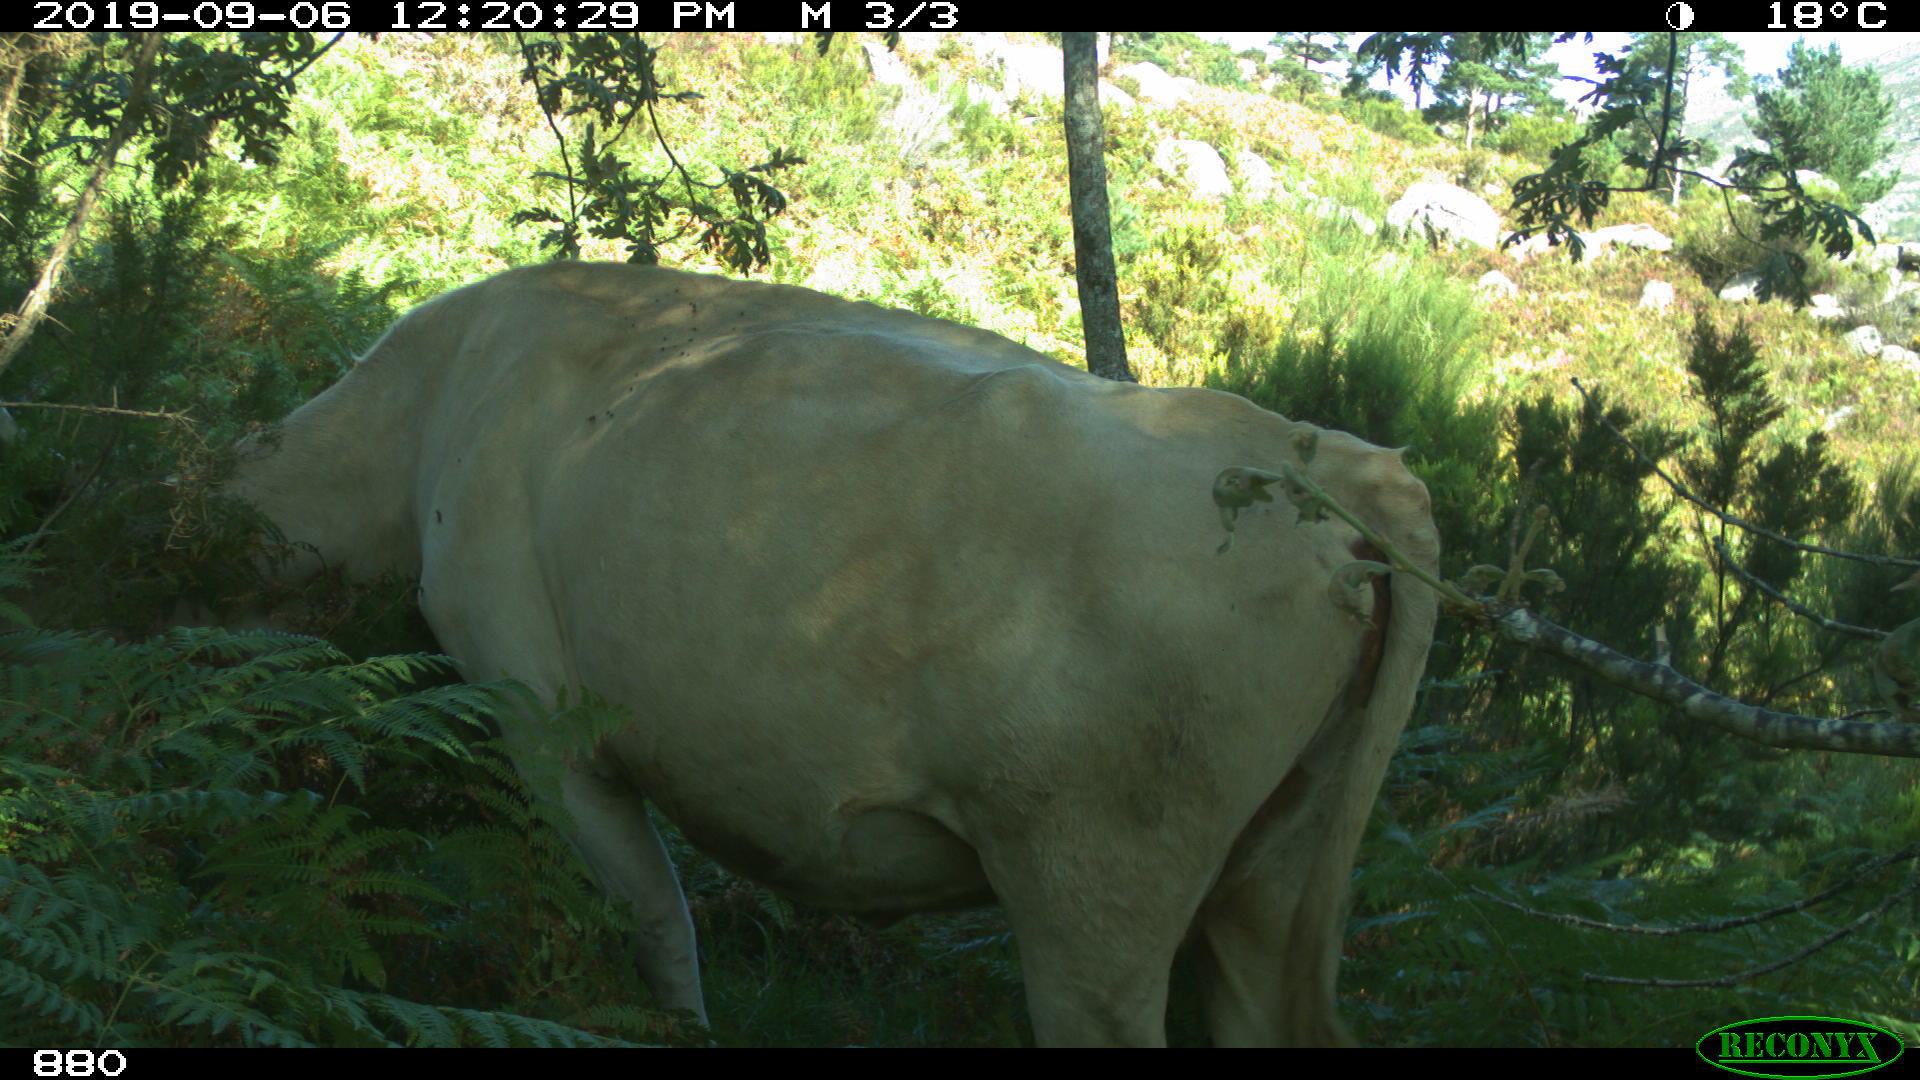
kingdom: Animalia
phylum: Chordata
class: Mammalia
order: Artiodactyla
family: Bovidae
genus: Bos
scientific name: Bos taurus
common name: Domesticated cattle
